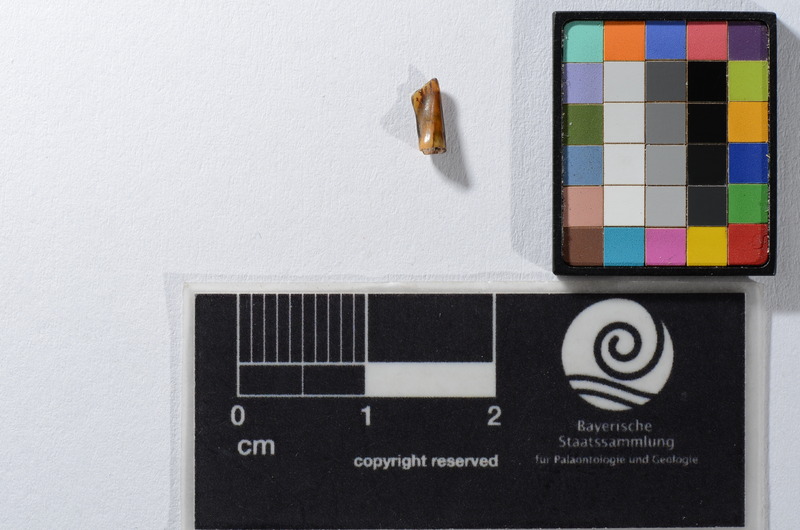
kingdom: Animalia
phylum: Chordata
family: Pycnodontidae
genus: Anomoeodus
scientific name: Anomoeodus
